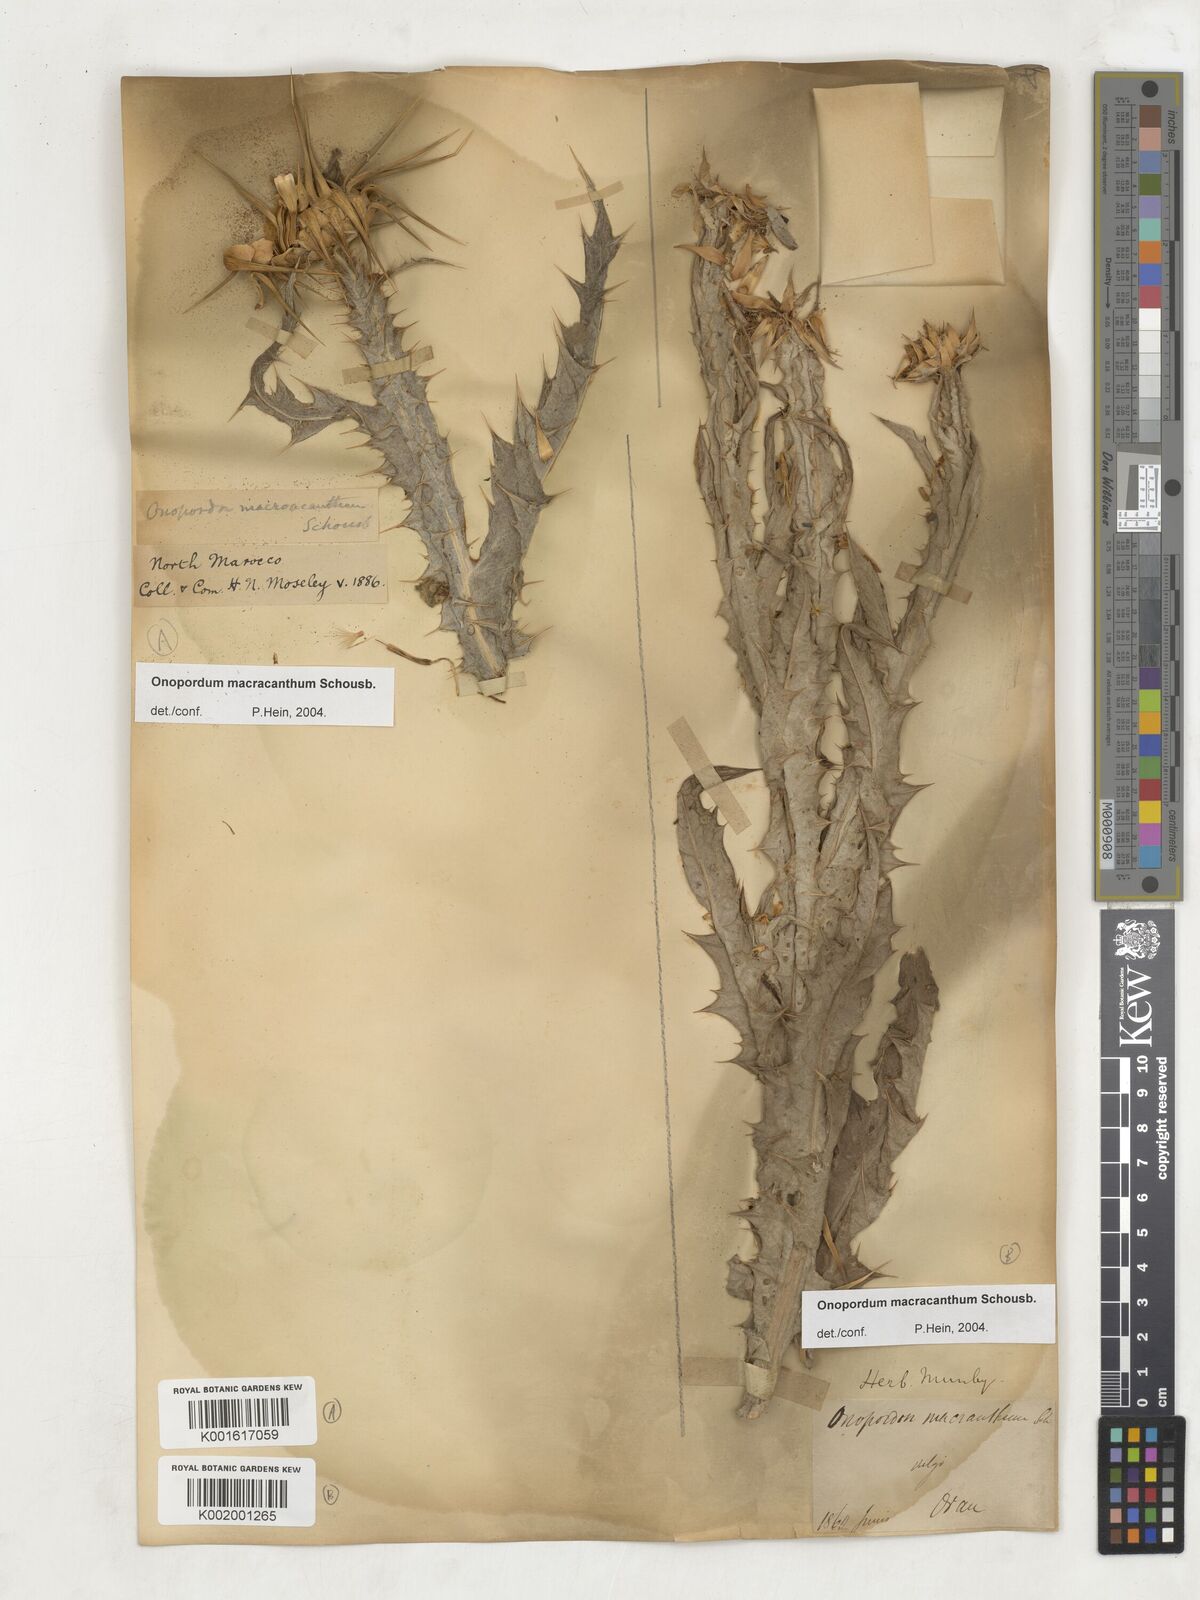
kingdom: Plantae
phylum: Tracheophyta
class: Magnoliopsida
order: Asterales
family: Asteraceae
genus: Onopordum
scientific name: Onopordum macracanthum
